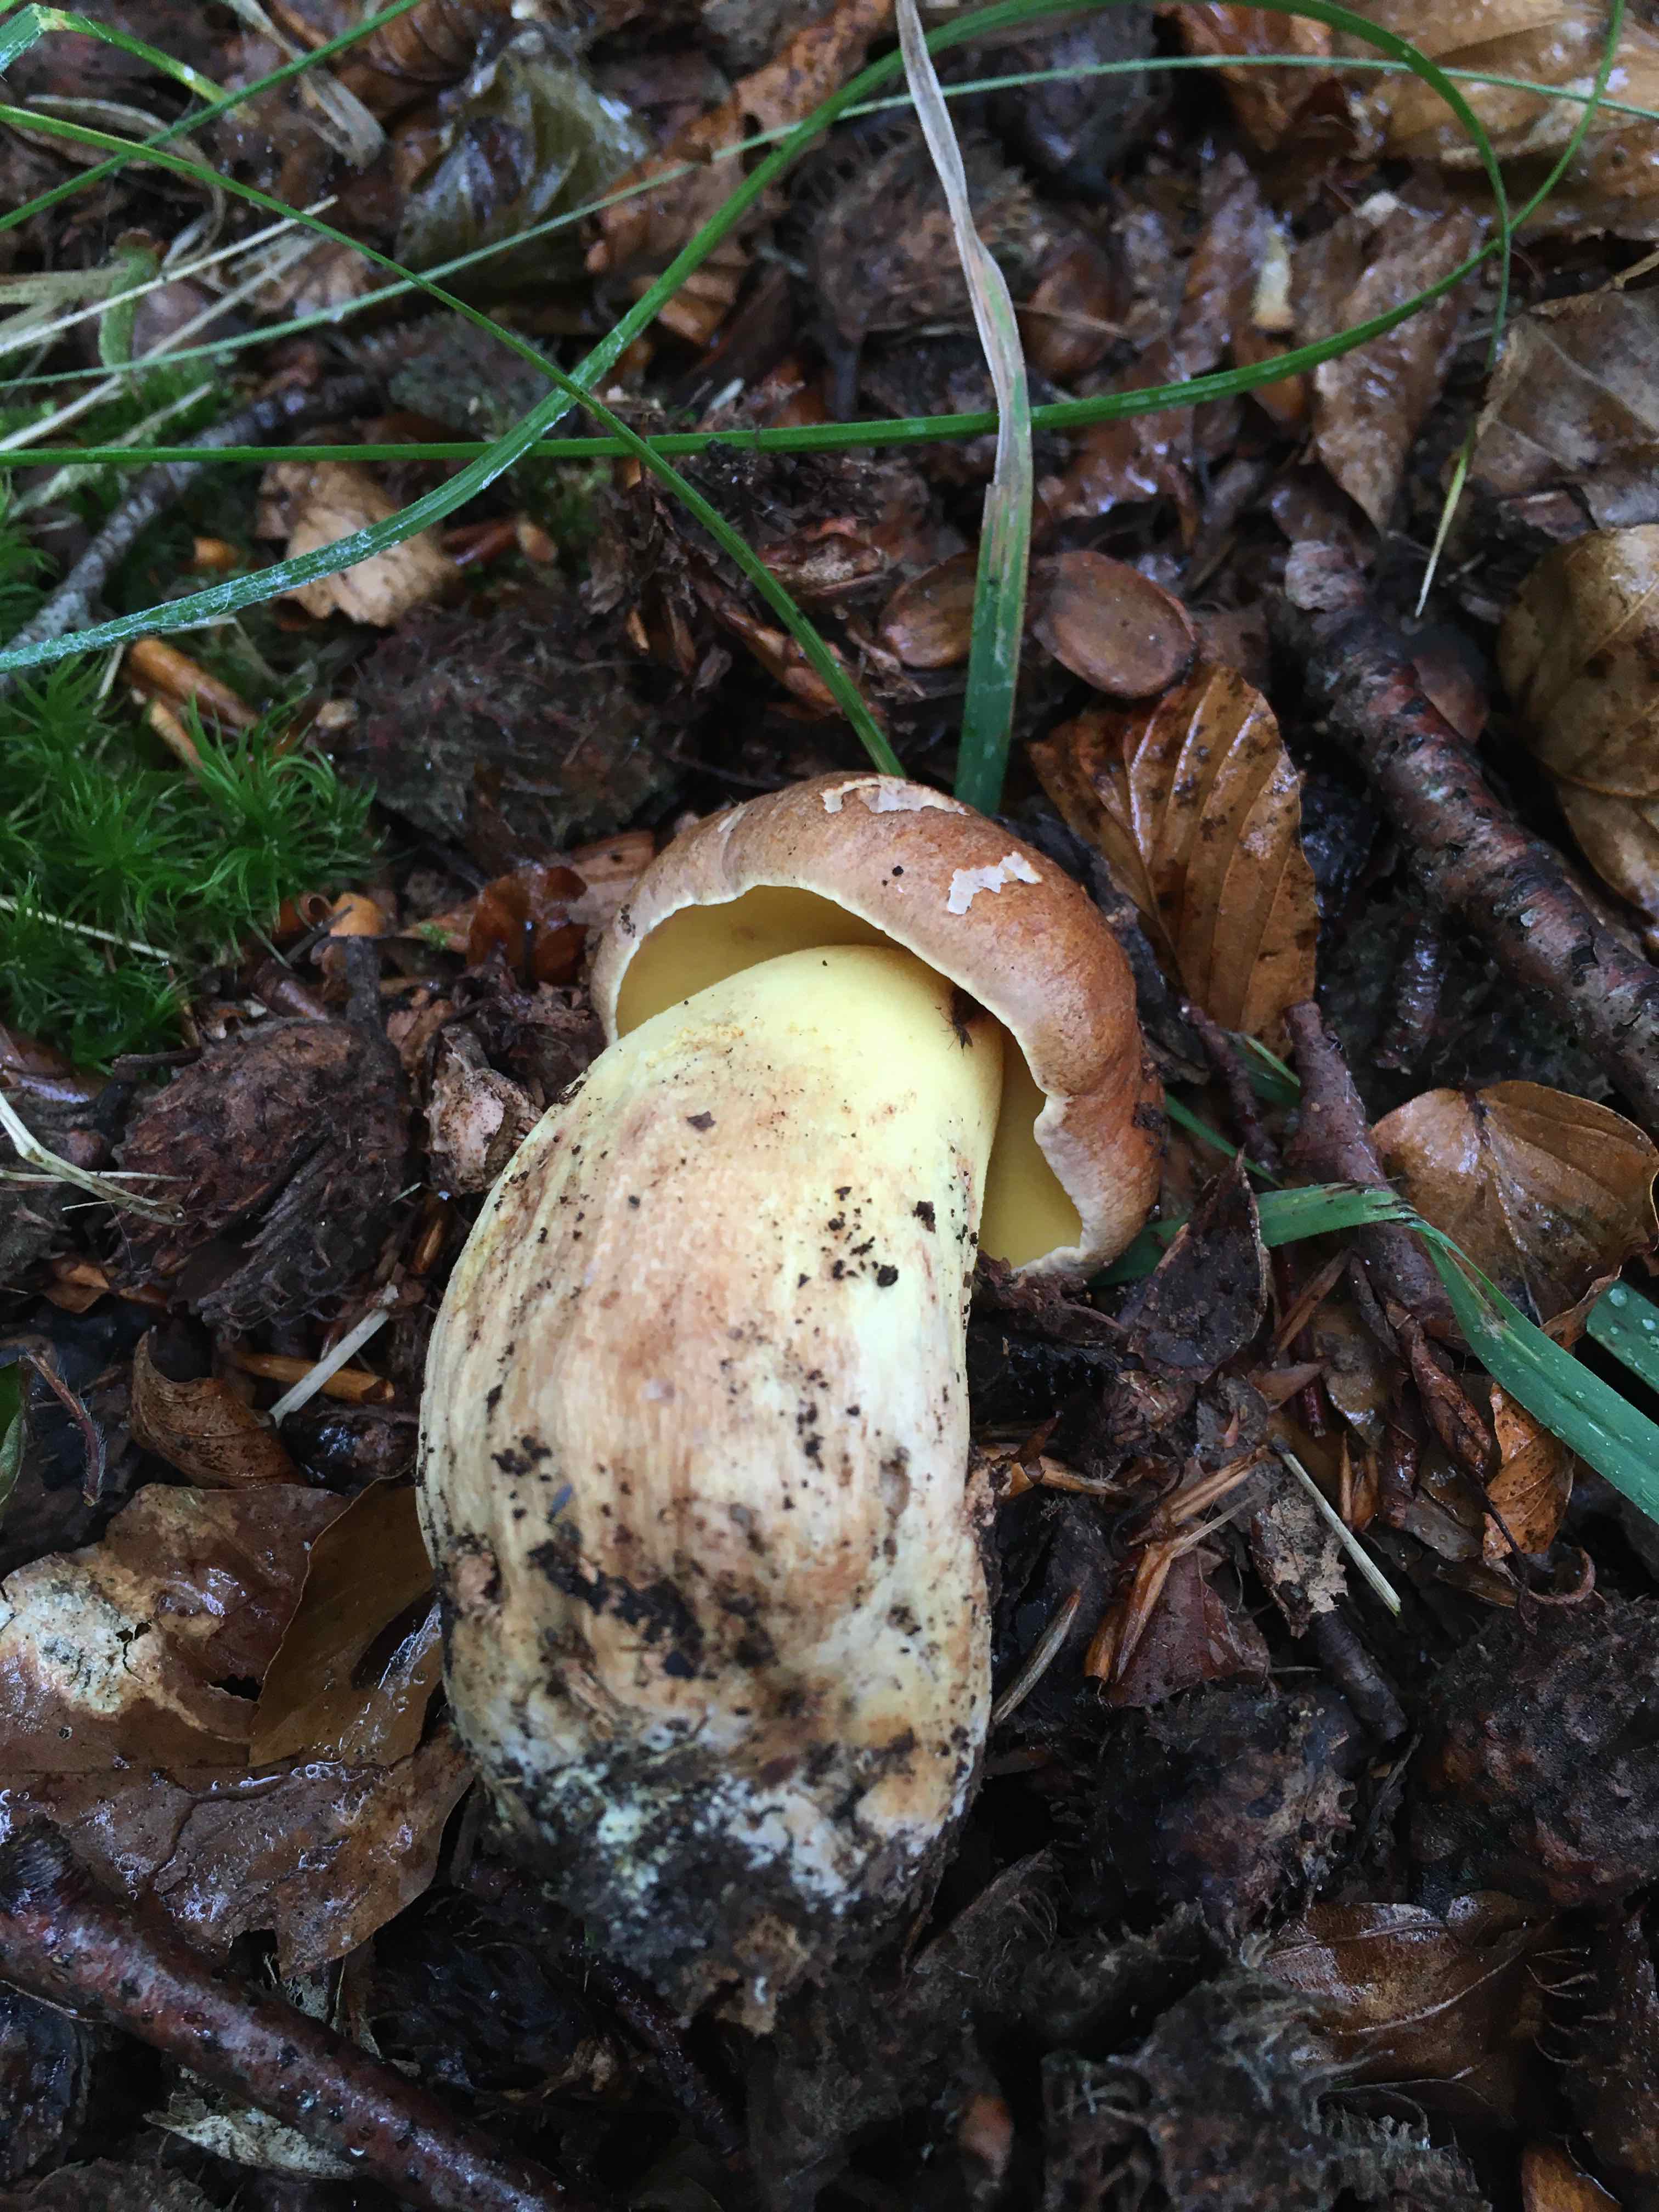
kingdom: Fungi
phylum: Basidiomycota
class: Agaricomycetes
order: Boletales
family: Boletaceae
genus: Butyriboletus
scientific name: Butyriboletus appendiculatus
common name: tenstokket rørhat
